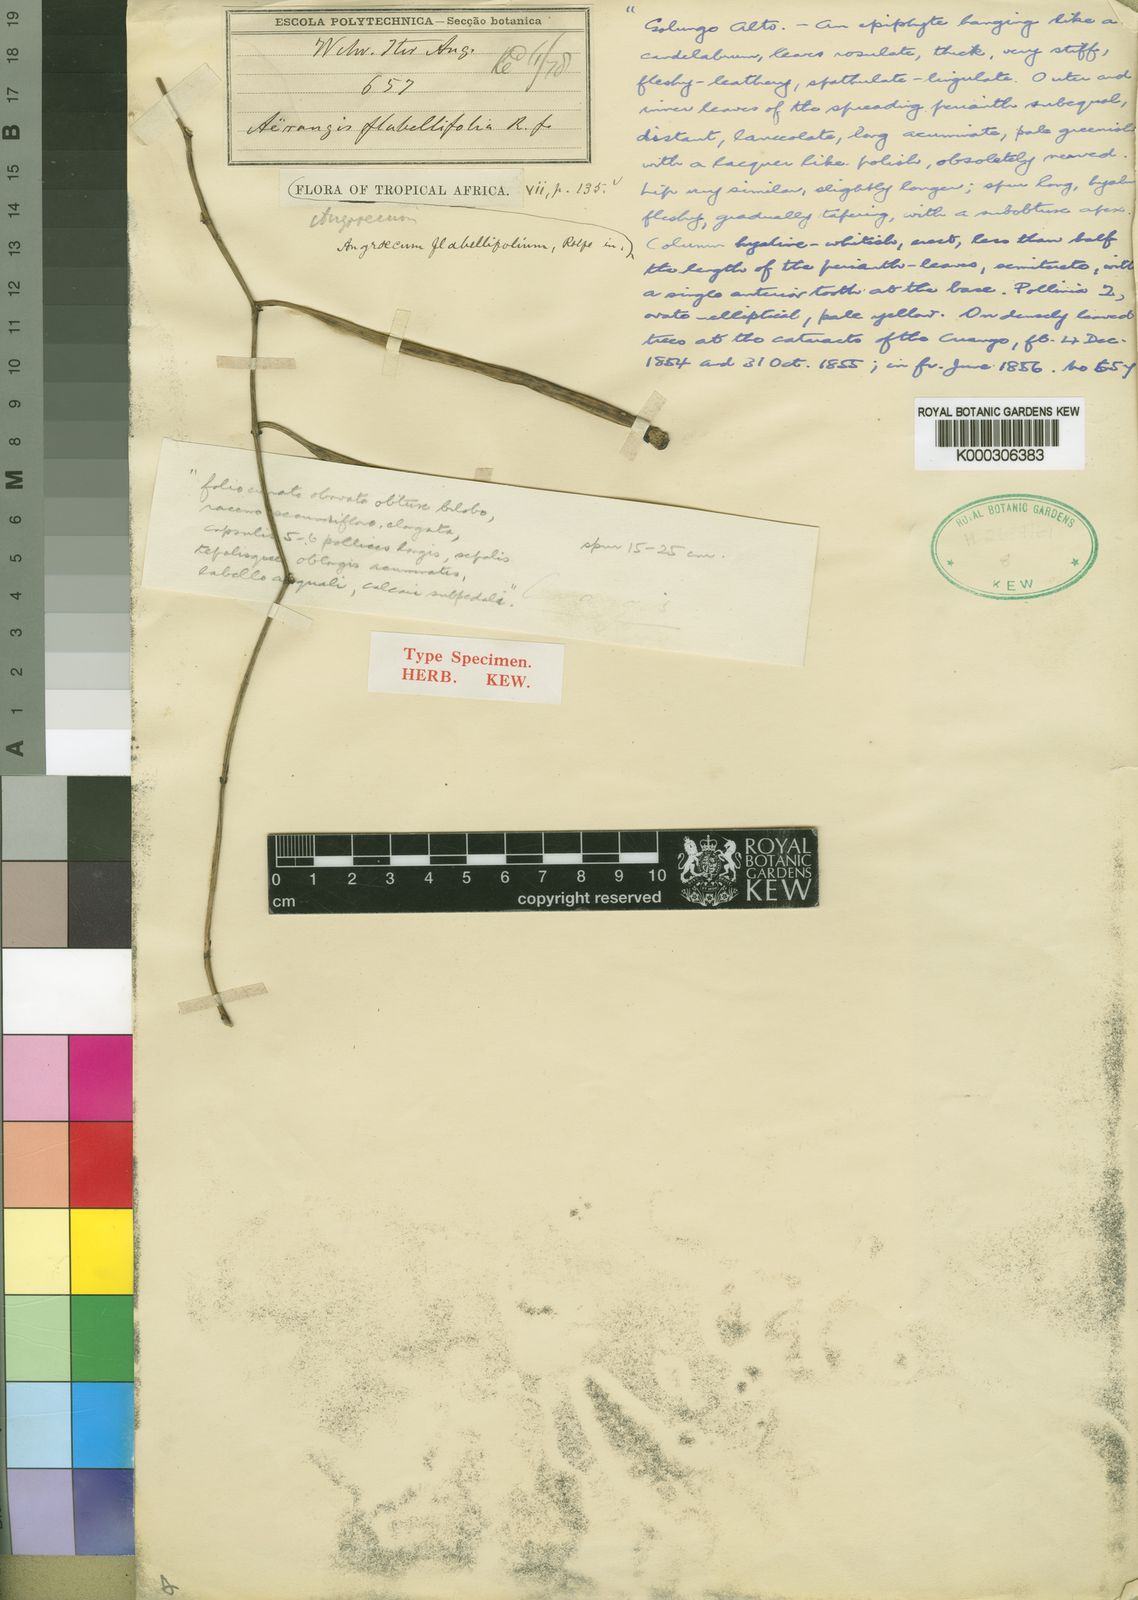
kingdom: Plantae
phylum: Tracheophyta
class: Liliopsida
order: Asparagales
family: Orchidaceae
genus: Aerangis
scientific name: Aerangis brachycarpa
